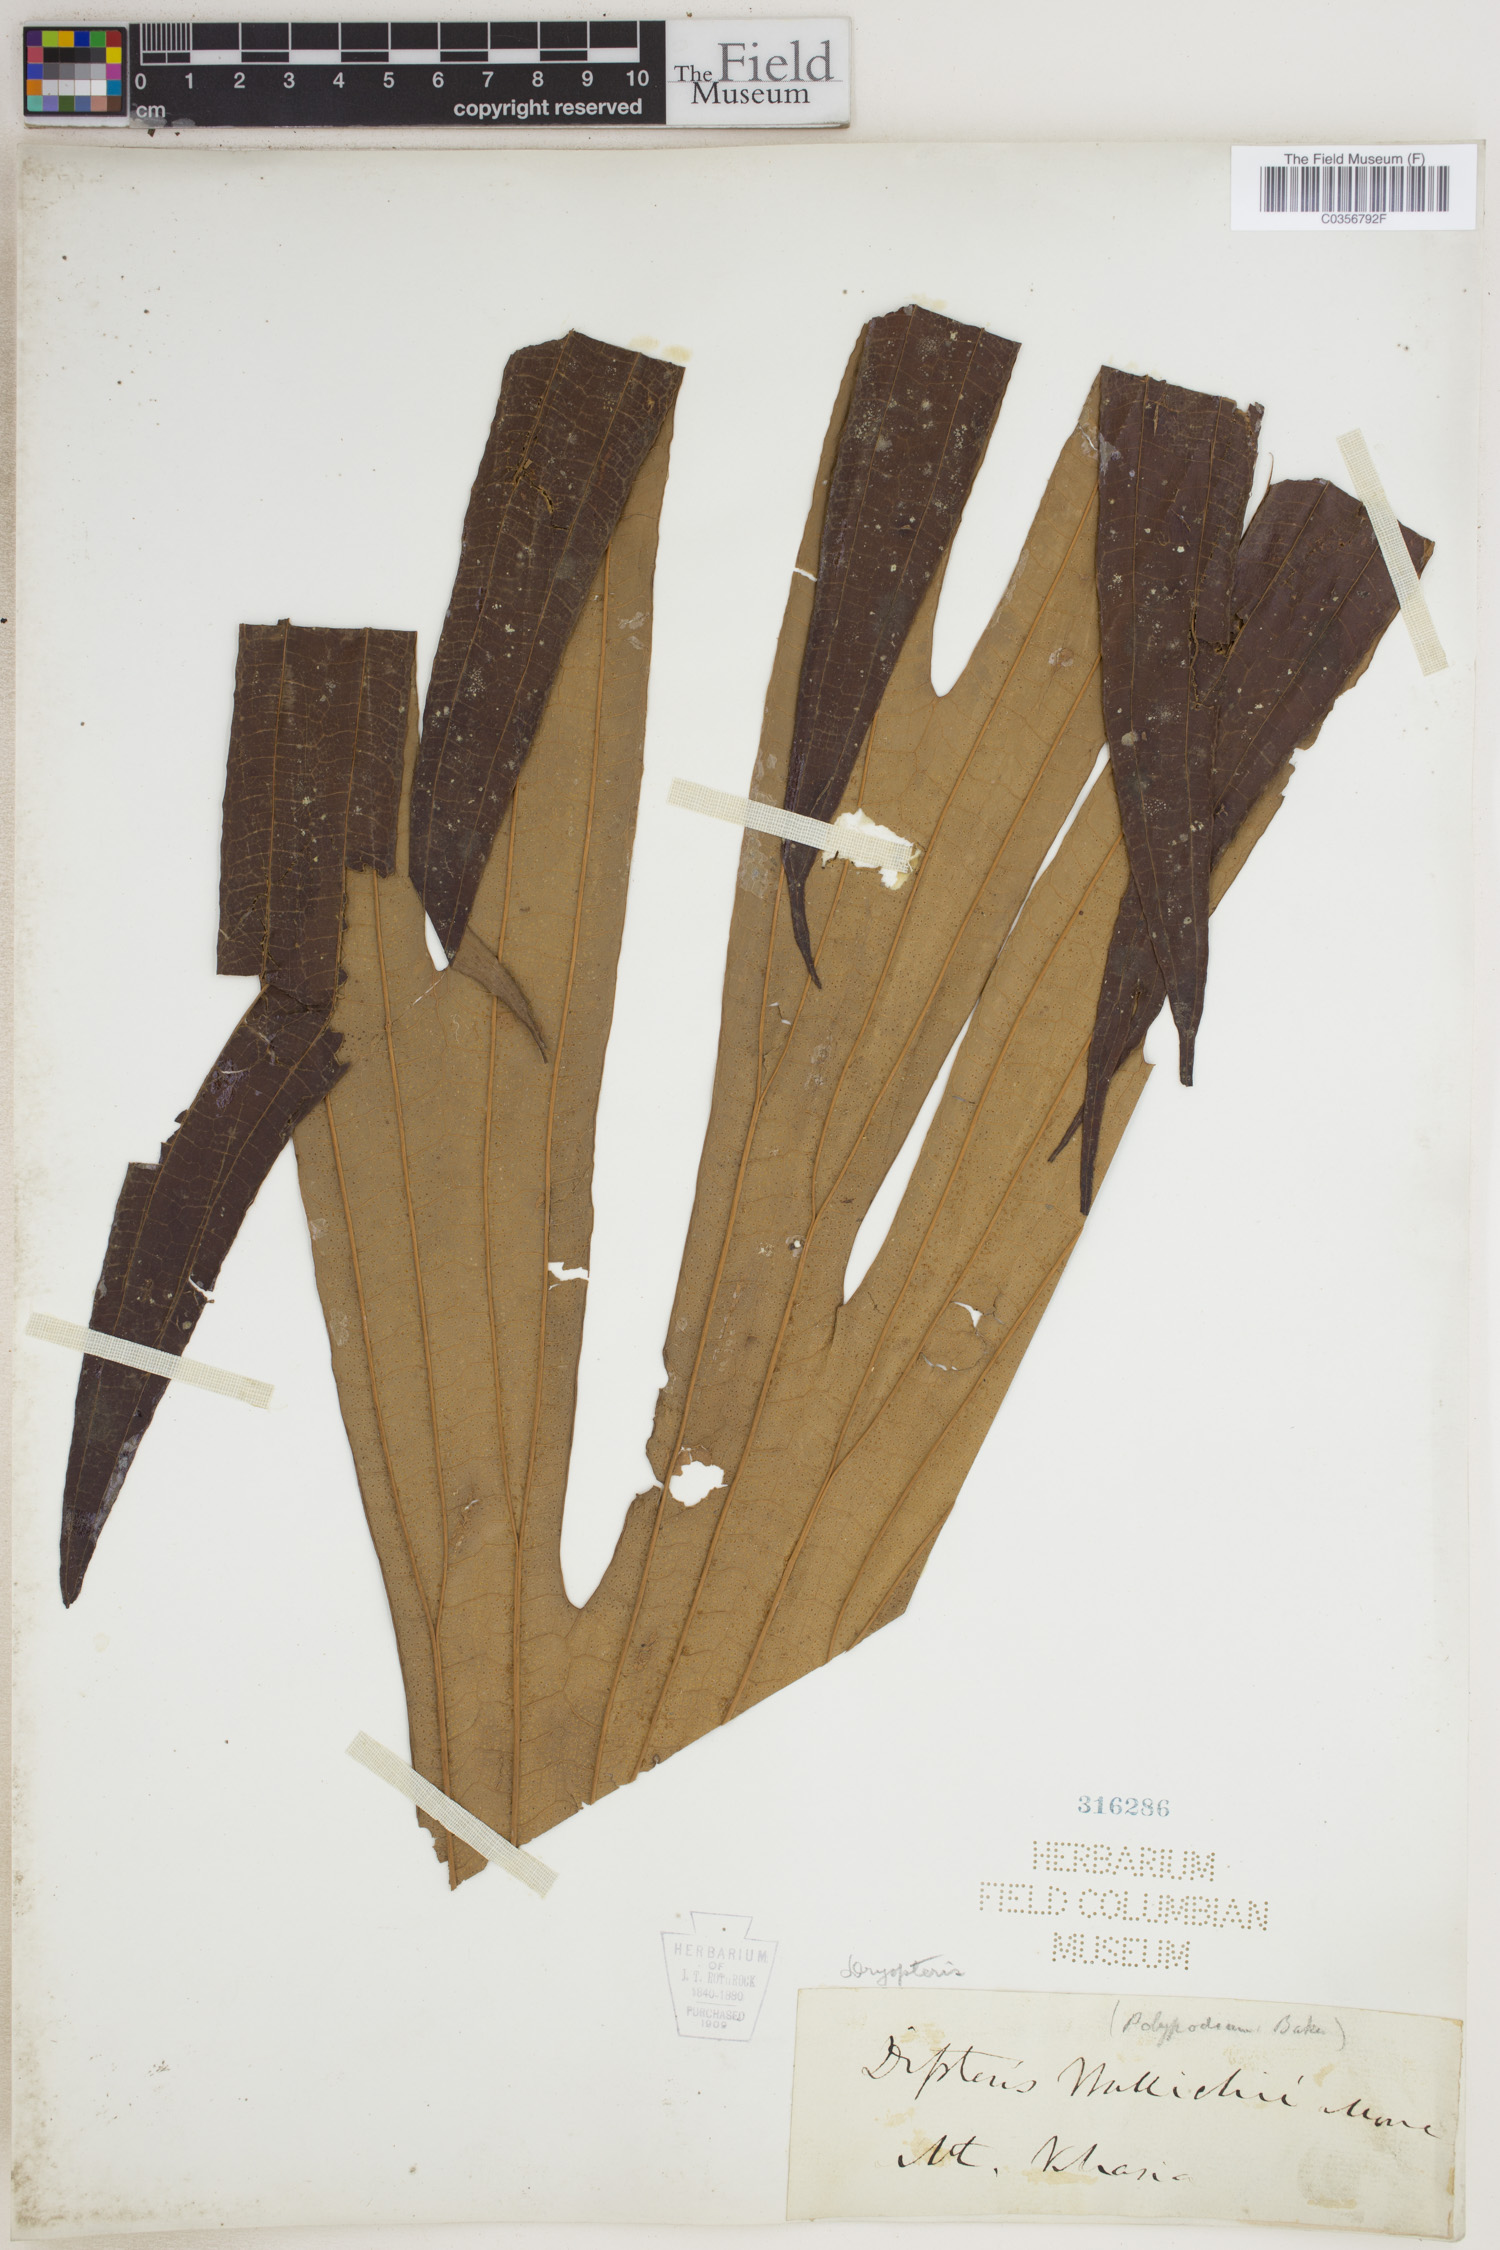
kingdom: Plantae
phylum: Tracheophyta
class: Polypodiopsida
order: Polypodiales
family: Dryopteridaceae
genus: Dryopteris
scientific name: Dryopteris
